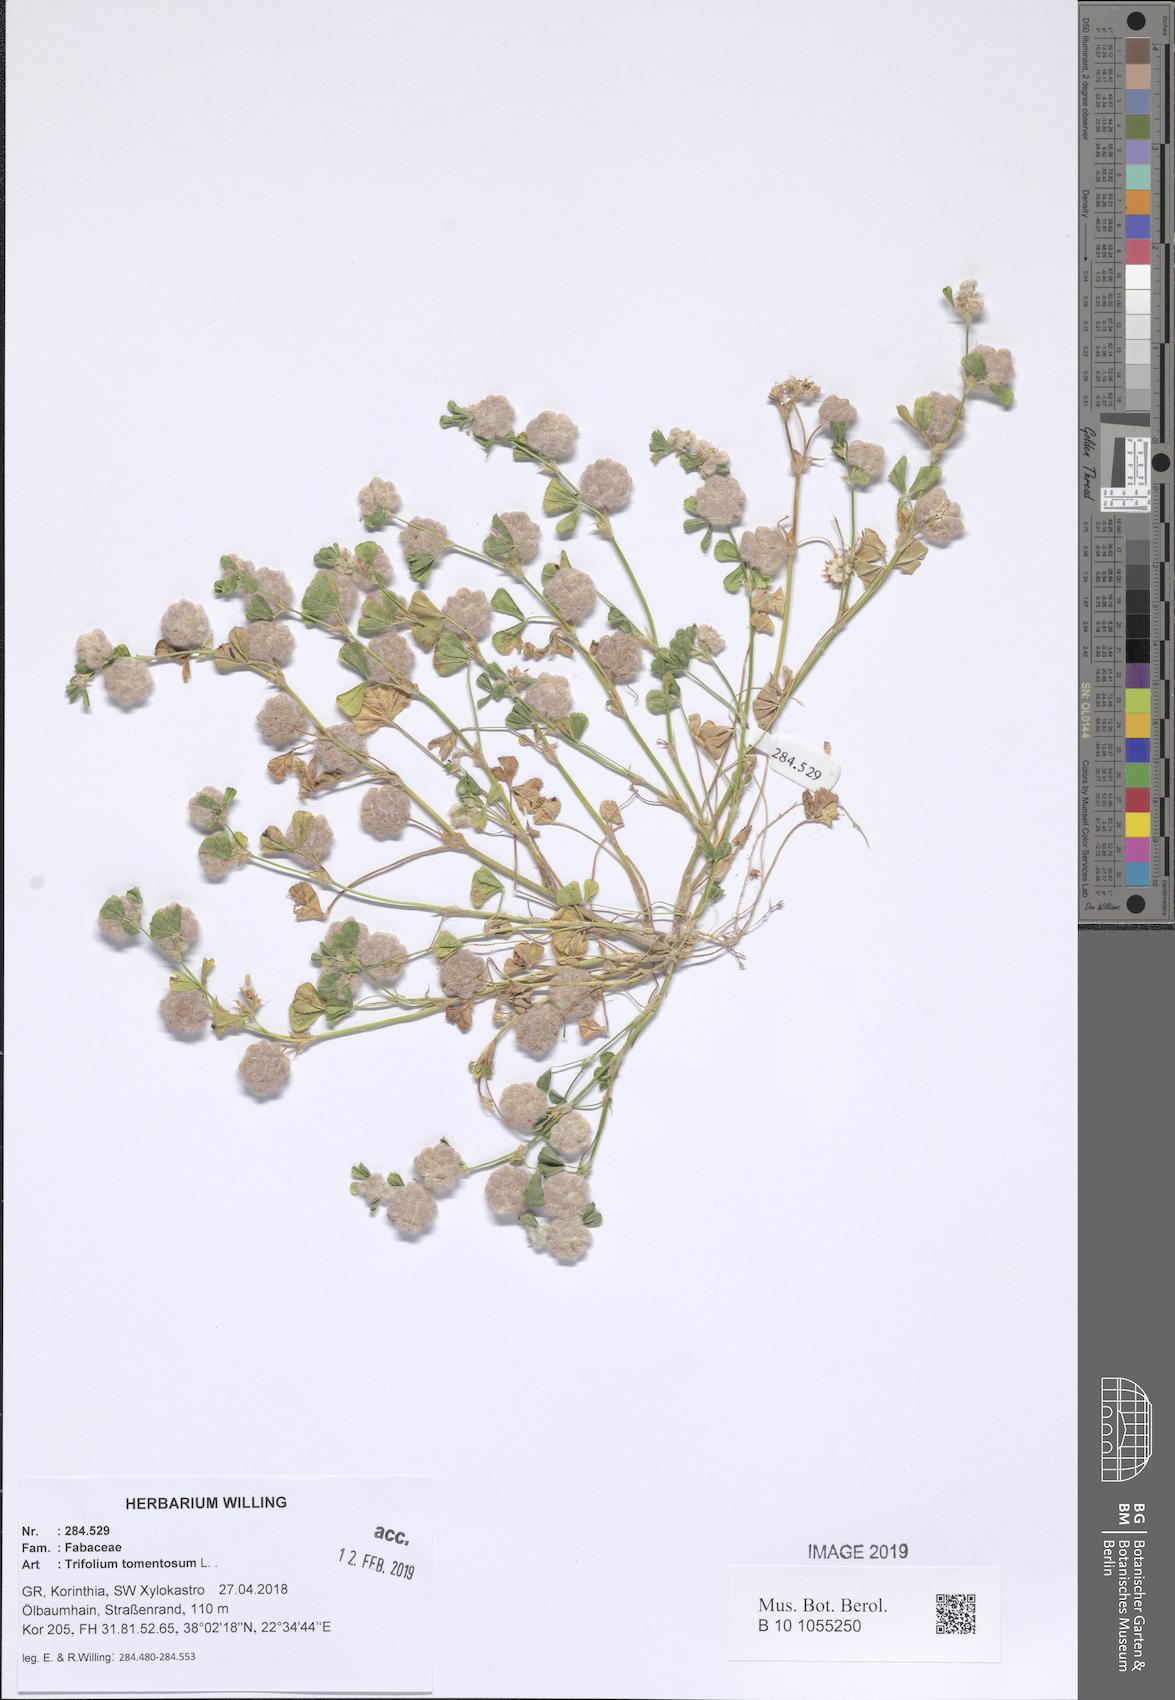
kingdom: Plantae
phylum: Tracheophyta
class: Magnoliopsida
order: Fabales
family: Fabaceae
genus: Trifolium
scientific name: Trifolium tomentosum
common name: Woolly clover
